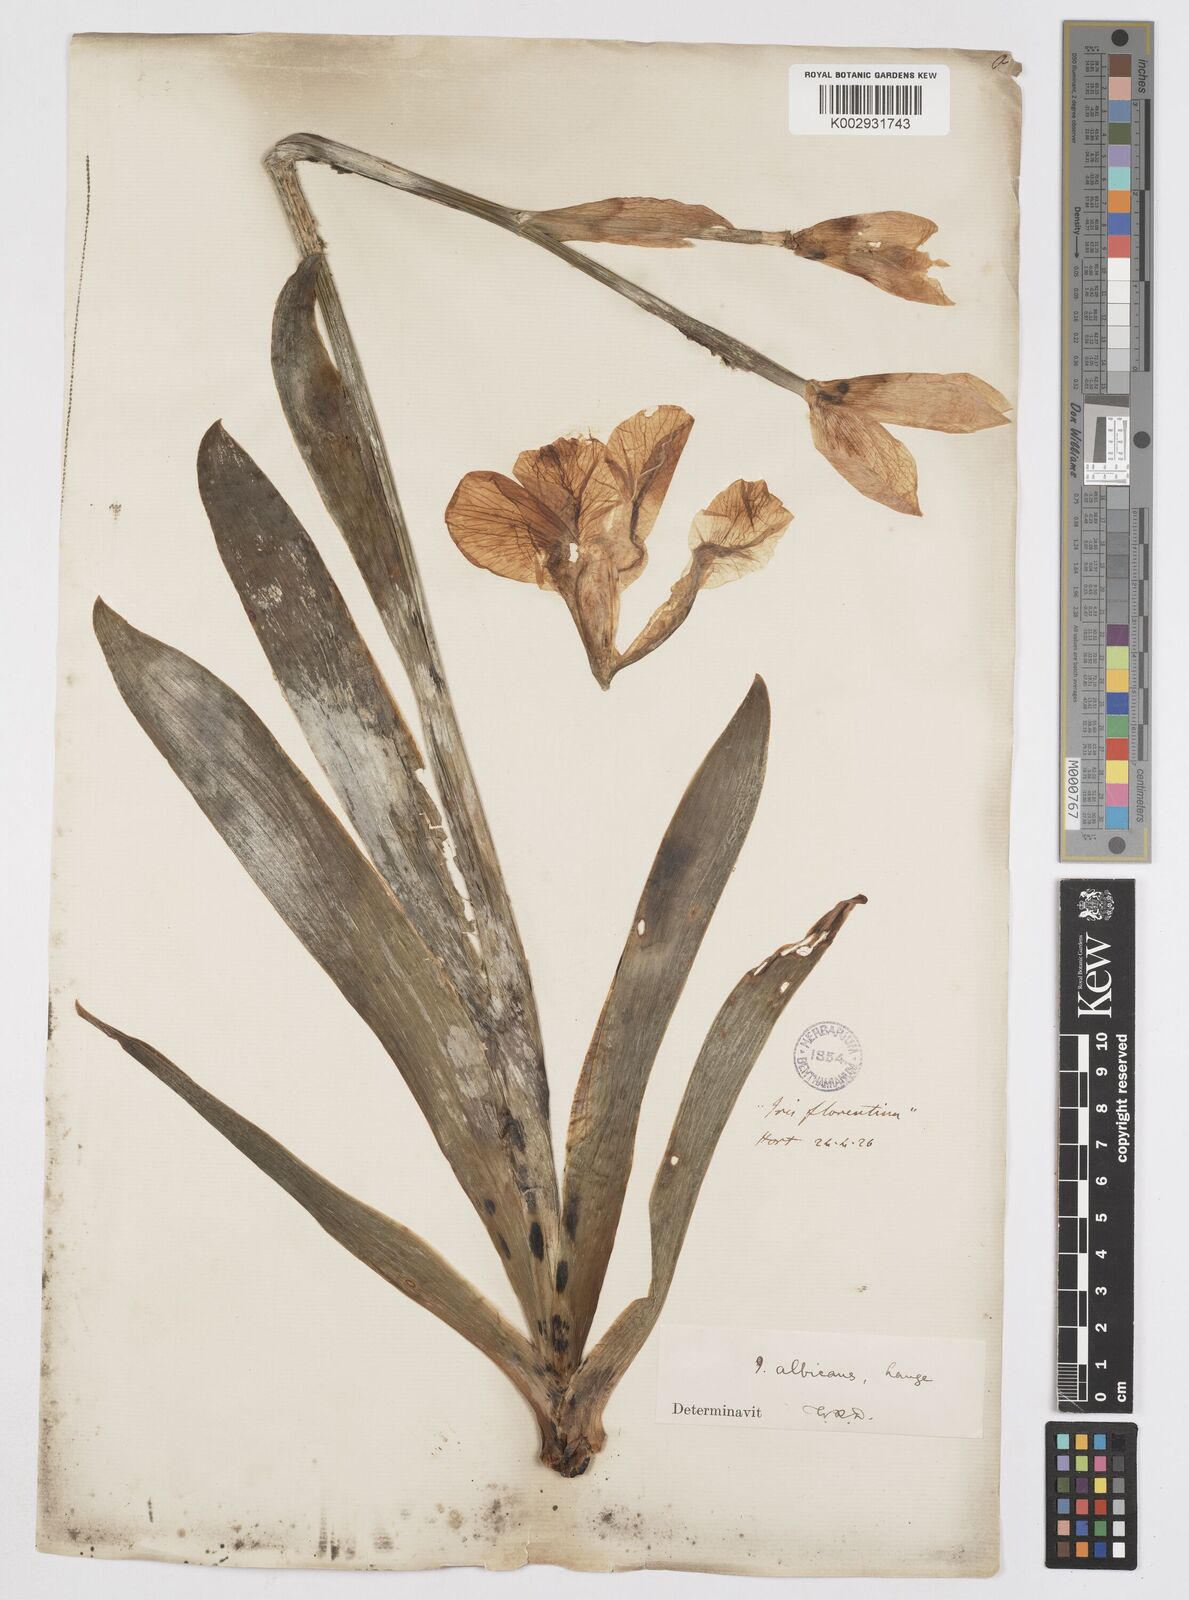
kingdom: Plantae
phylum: Tracheophyta
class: Liliopsida
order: Asparagales
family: Iridaceae
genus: Iris
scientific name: Iris florentina
